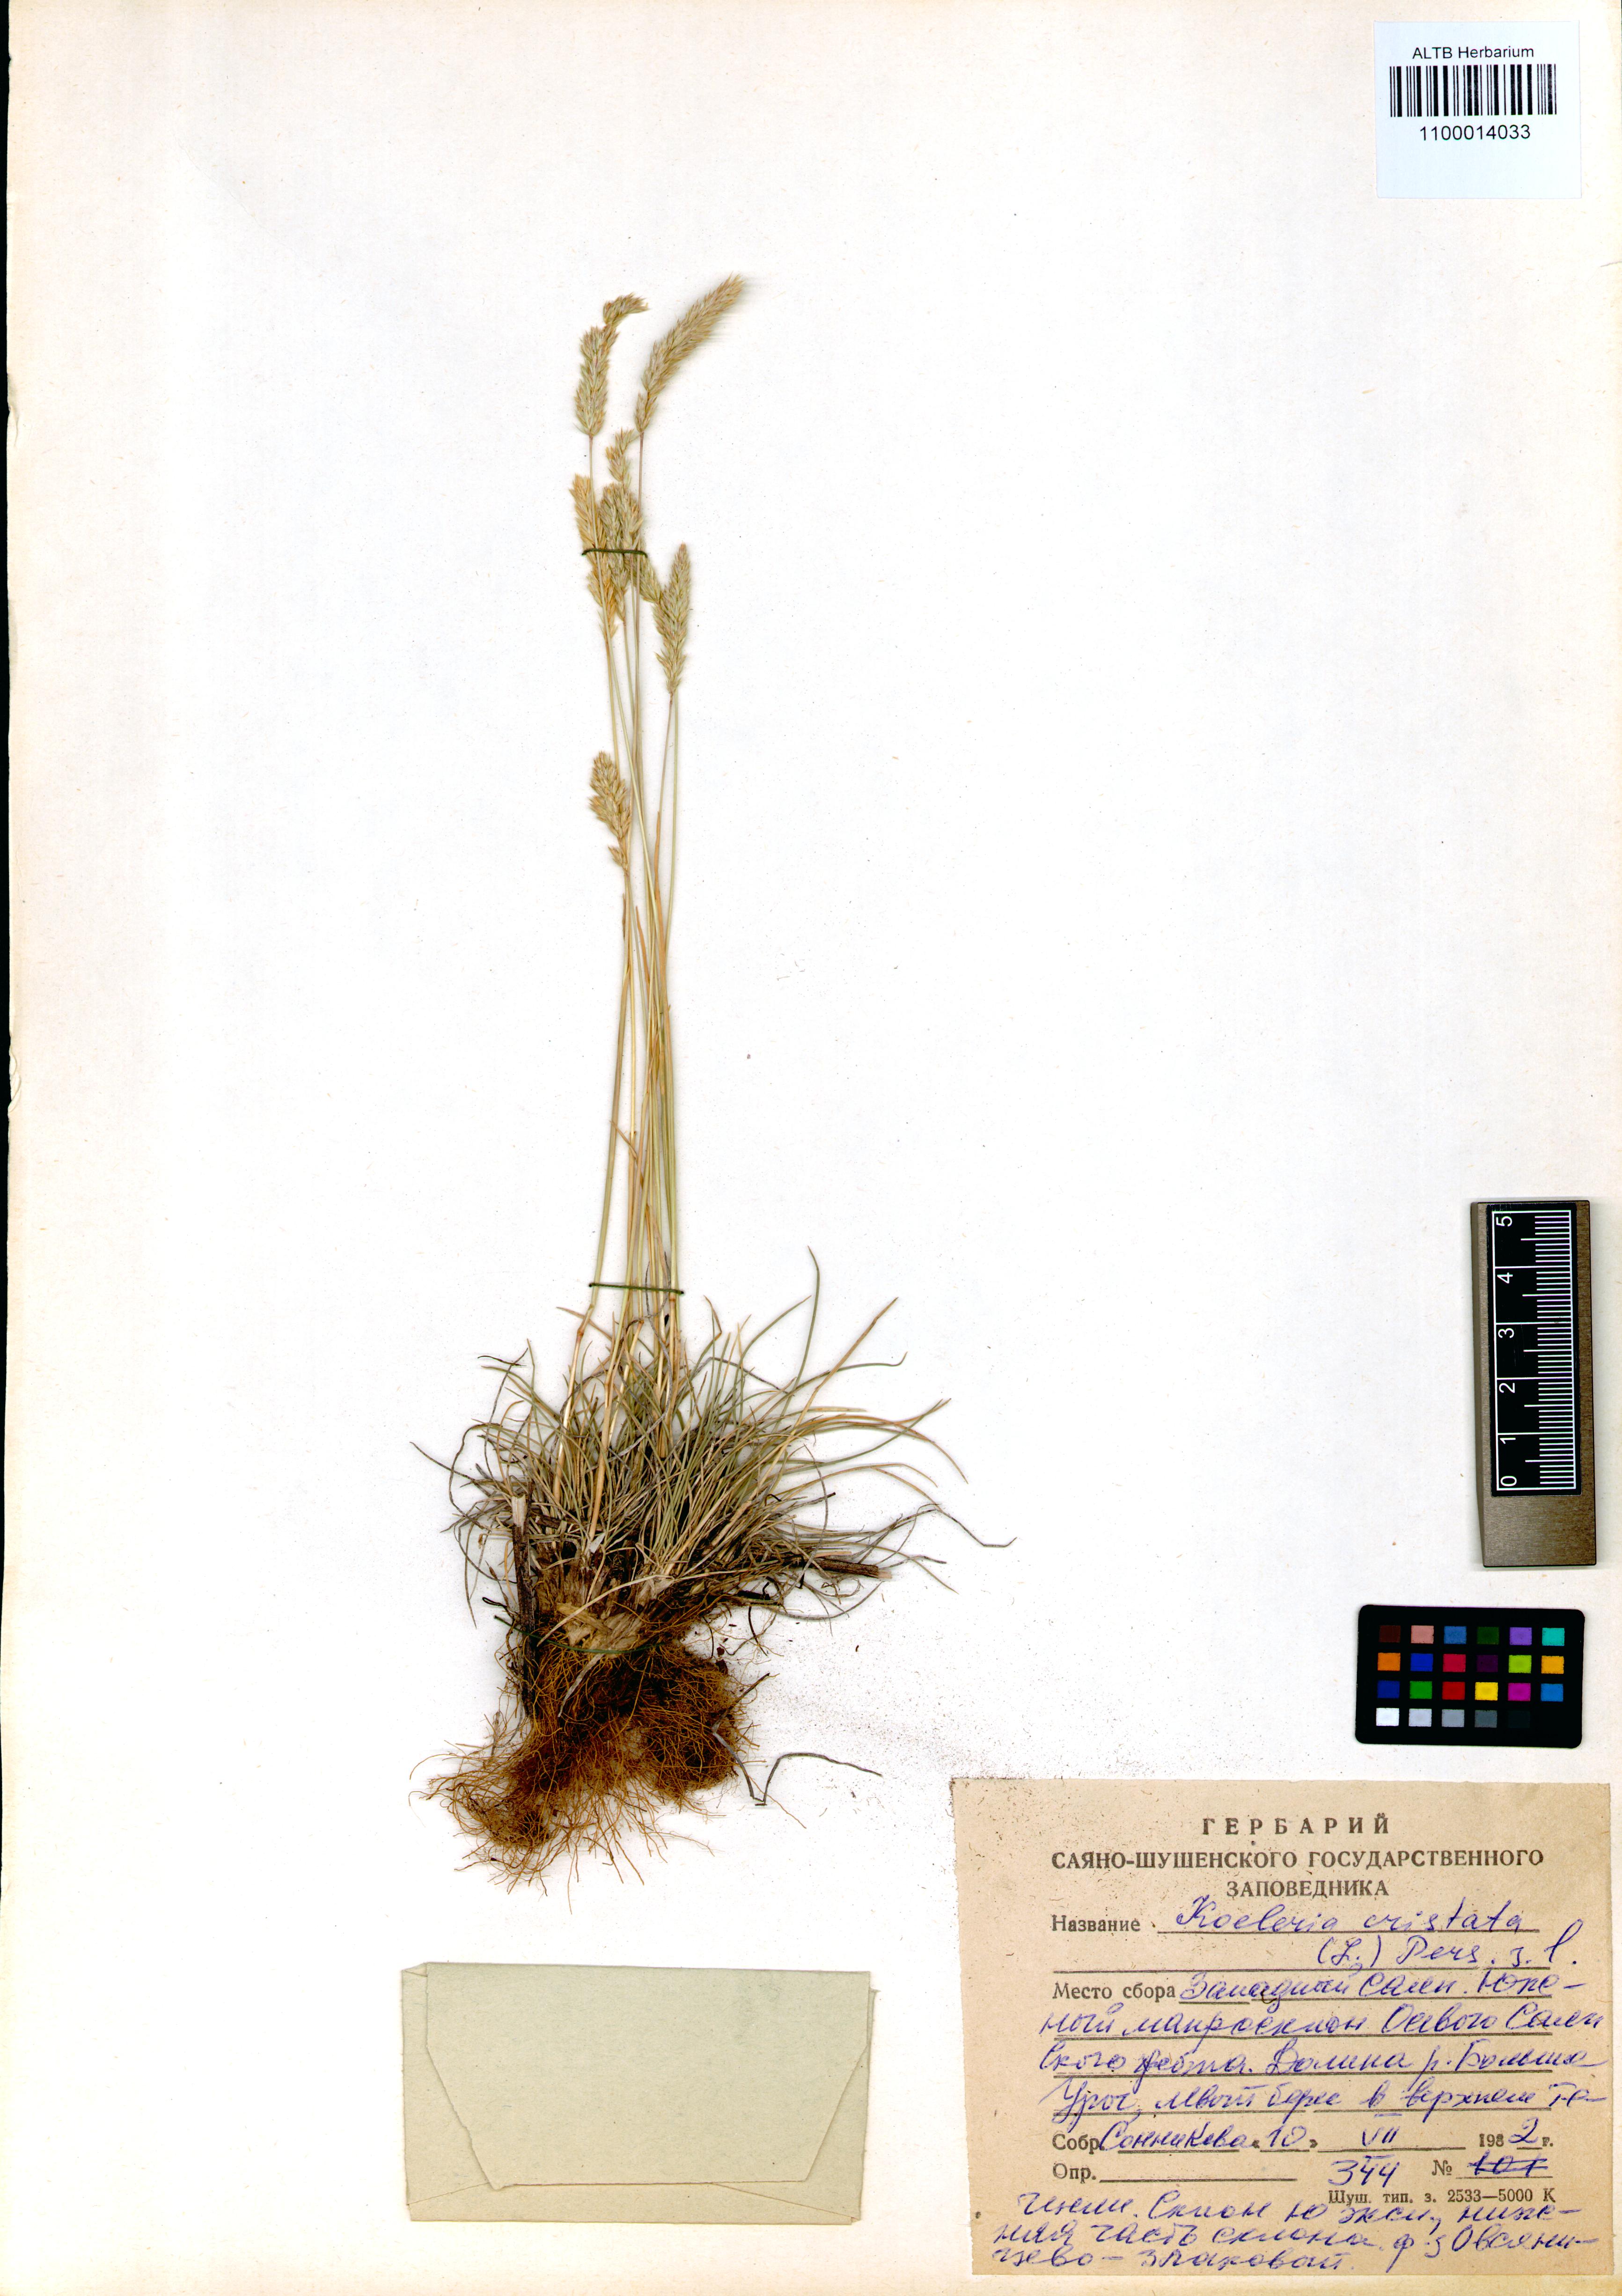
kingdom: Plantae
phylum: Tracheophyta
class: Liliopsida
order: Poales
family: Poaceae
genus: Koeleria
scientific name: Koeleria pyramidata
